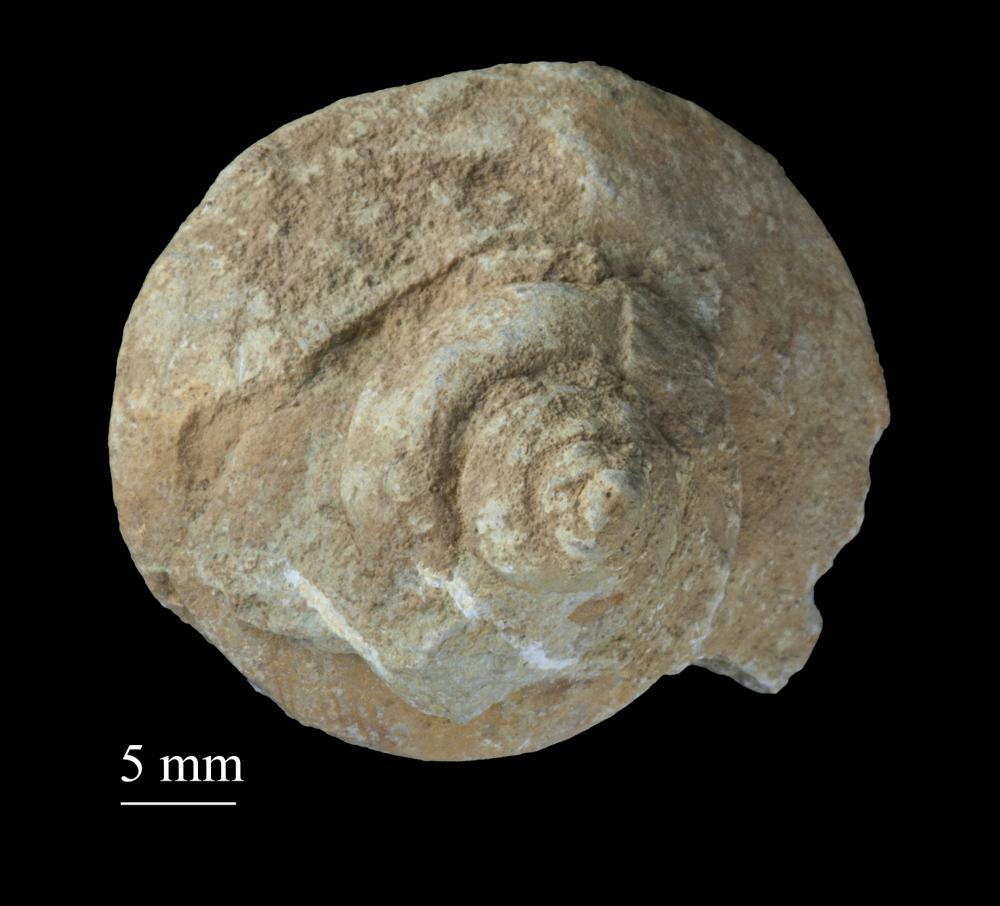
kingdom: Animalia
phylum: Mollusca
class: Gastropoda
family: Lophospiridae
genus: Ruedemannia
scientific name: Ruedemannia Worthenia borkholmiensis
